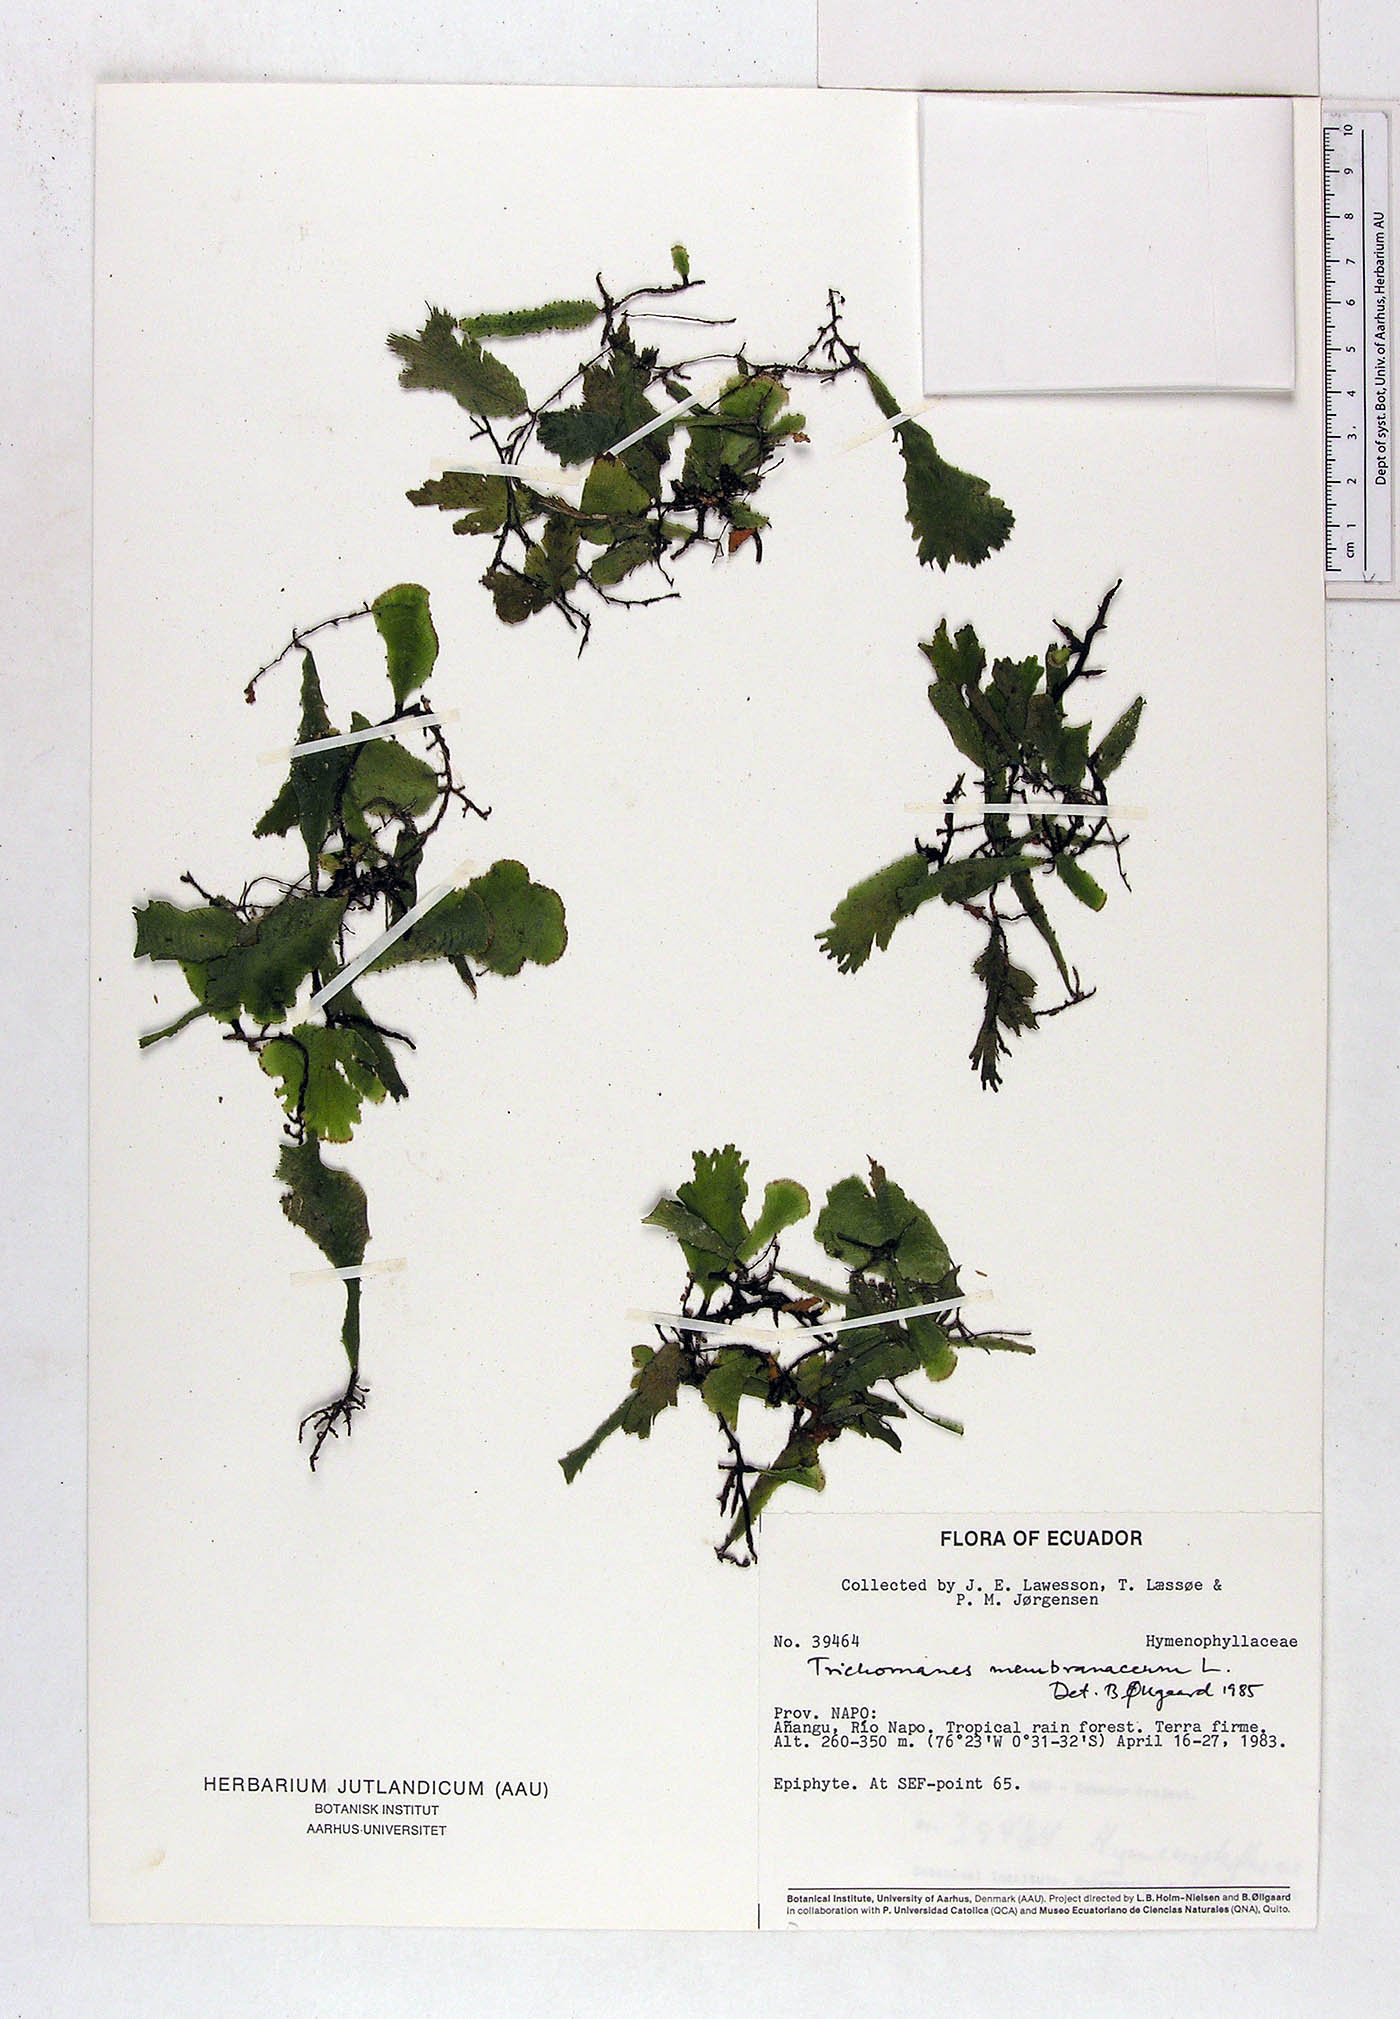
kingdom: Plantae
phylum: Tracheophyta
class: Polypodiopsida
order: Hymenophyllales
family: Hymenophyllaceae
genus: Didymoglossum
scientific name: Didymoglossum membranaceum
